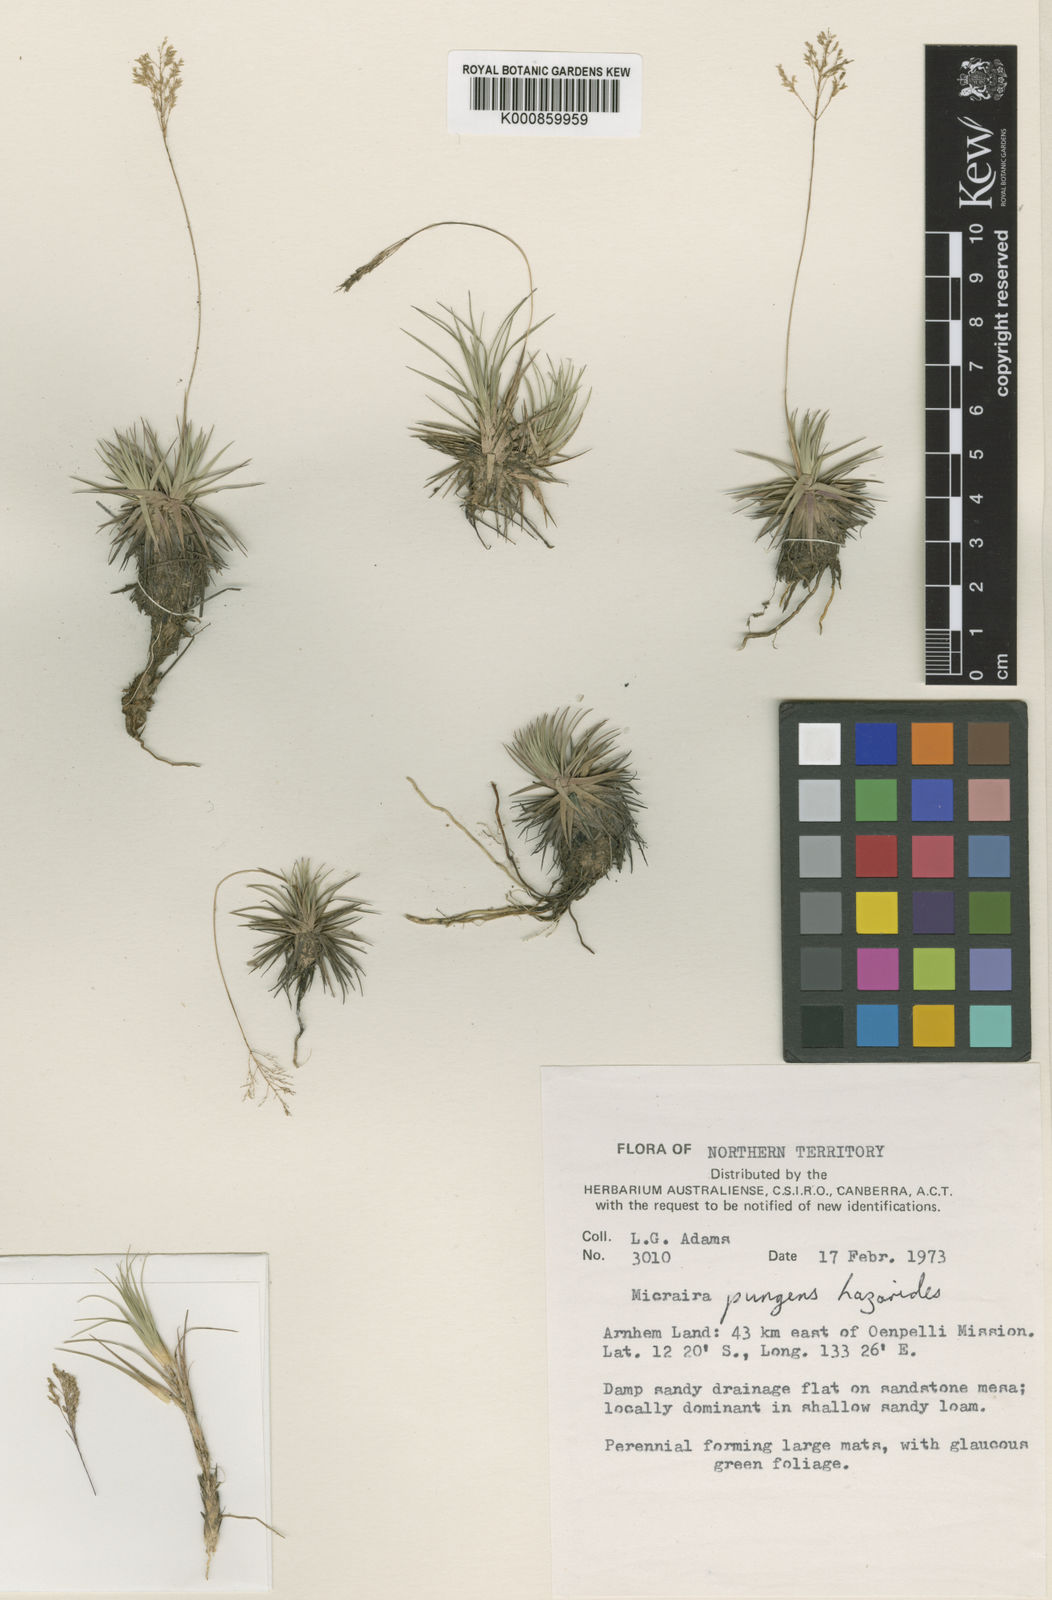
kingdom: Plantae
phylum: Tracheophyta
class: Liliopsida
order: Poales
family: Poaceae
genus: Micraira
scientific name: Micraira pungens
